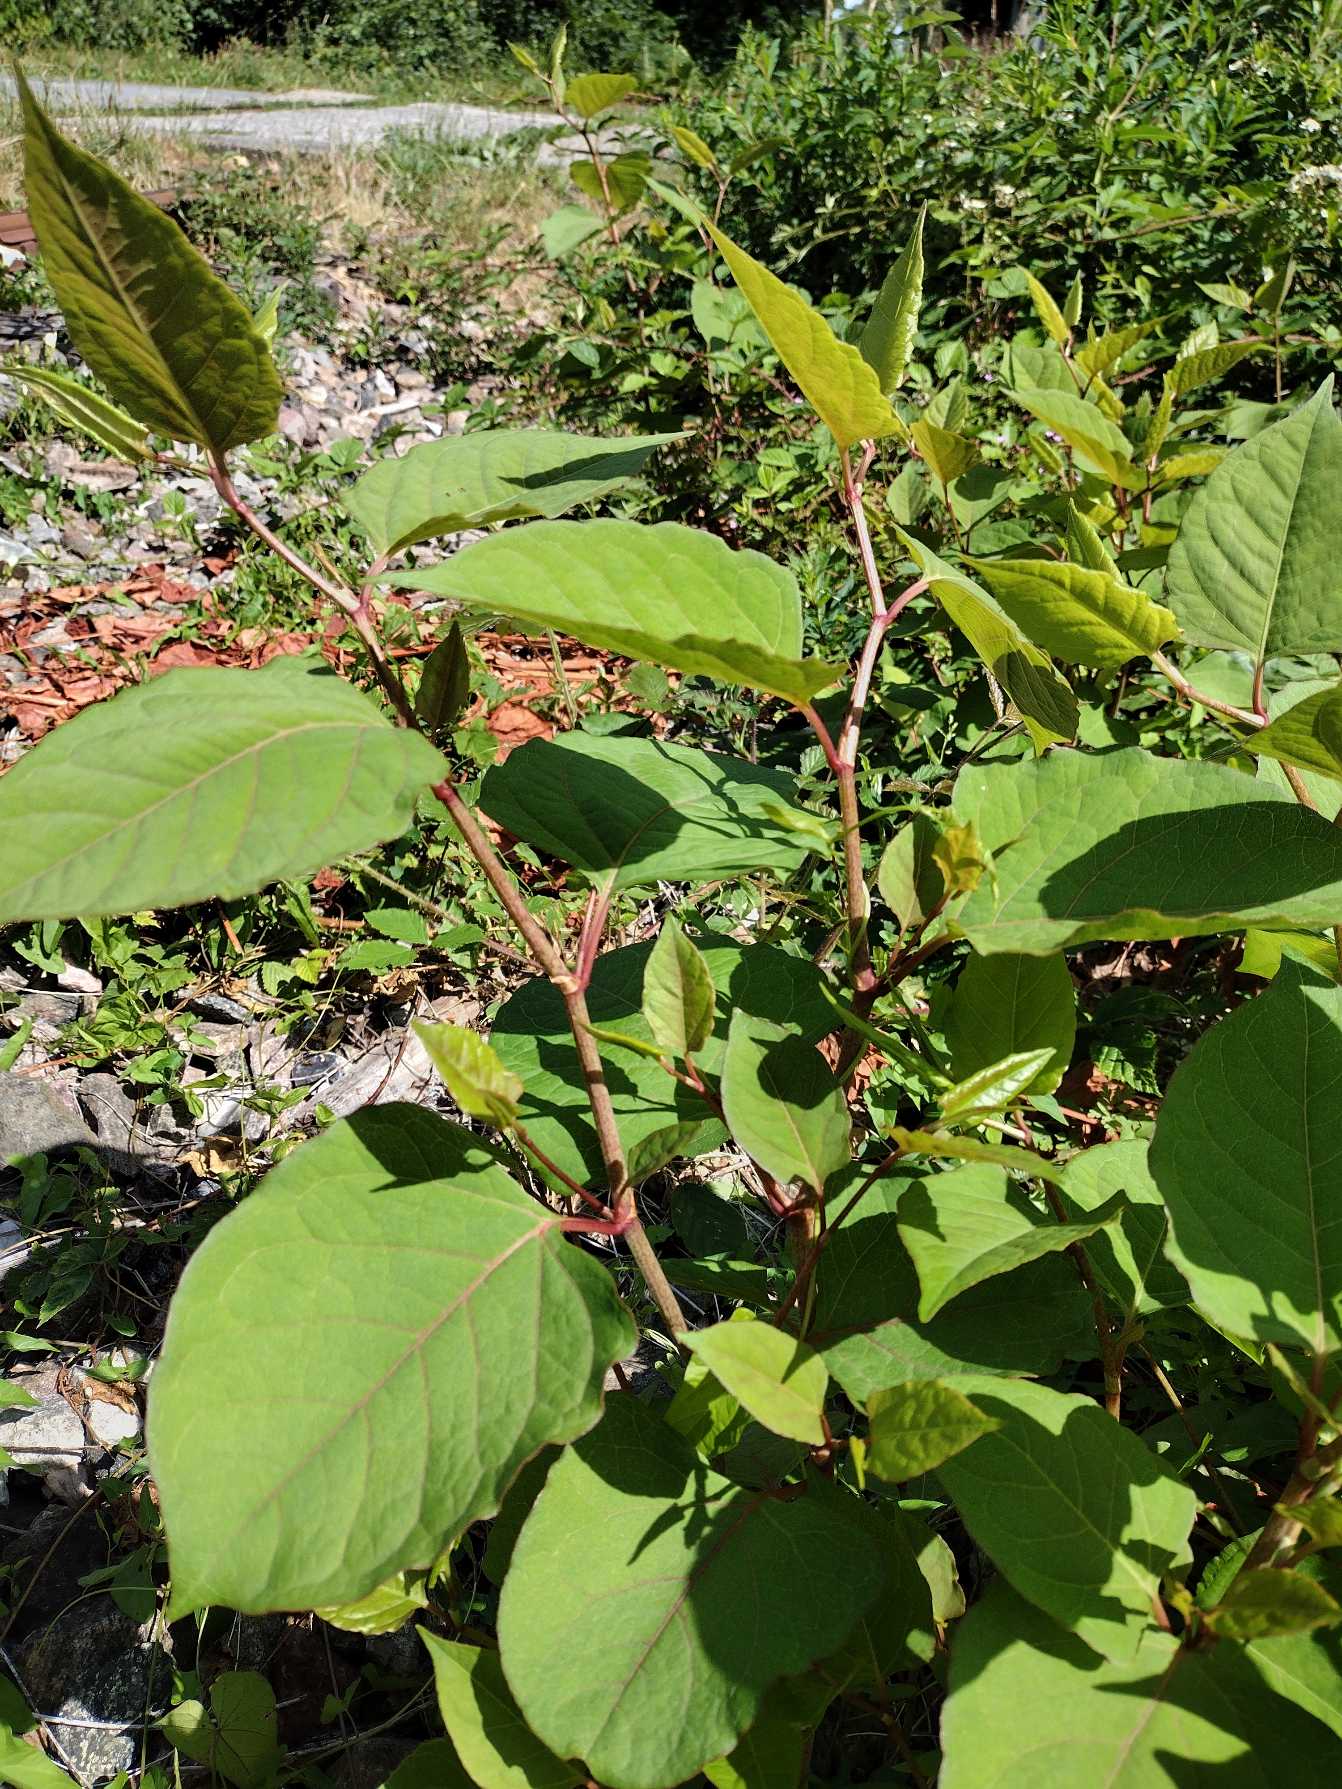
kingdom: Plantae
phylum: Tracheophyta
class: Magnoliopsida
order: Caryophyllales
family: Polygonaceae
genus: Reynoutria
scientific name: Reynoutria japonica
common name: Japan-pileurt
